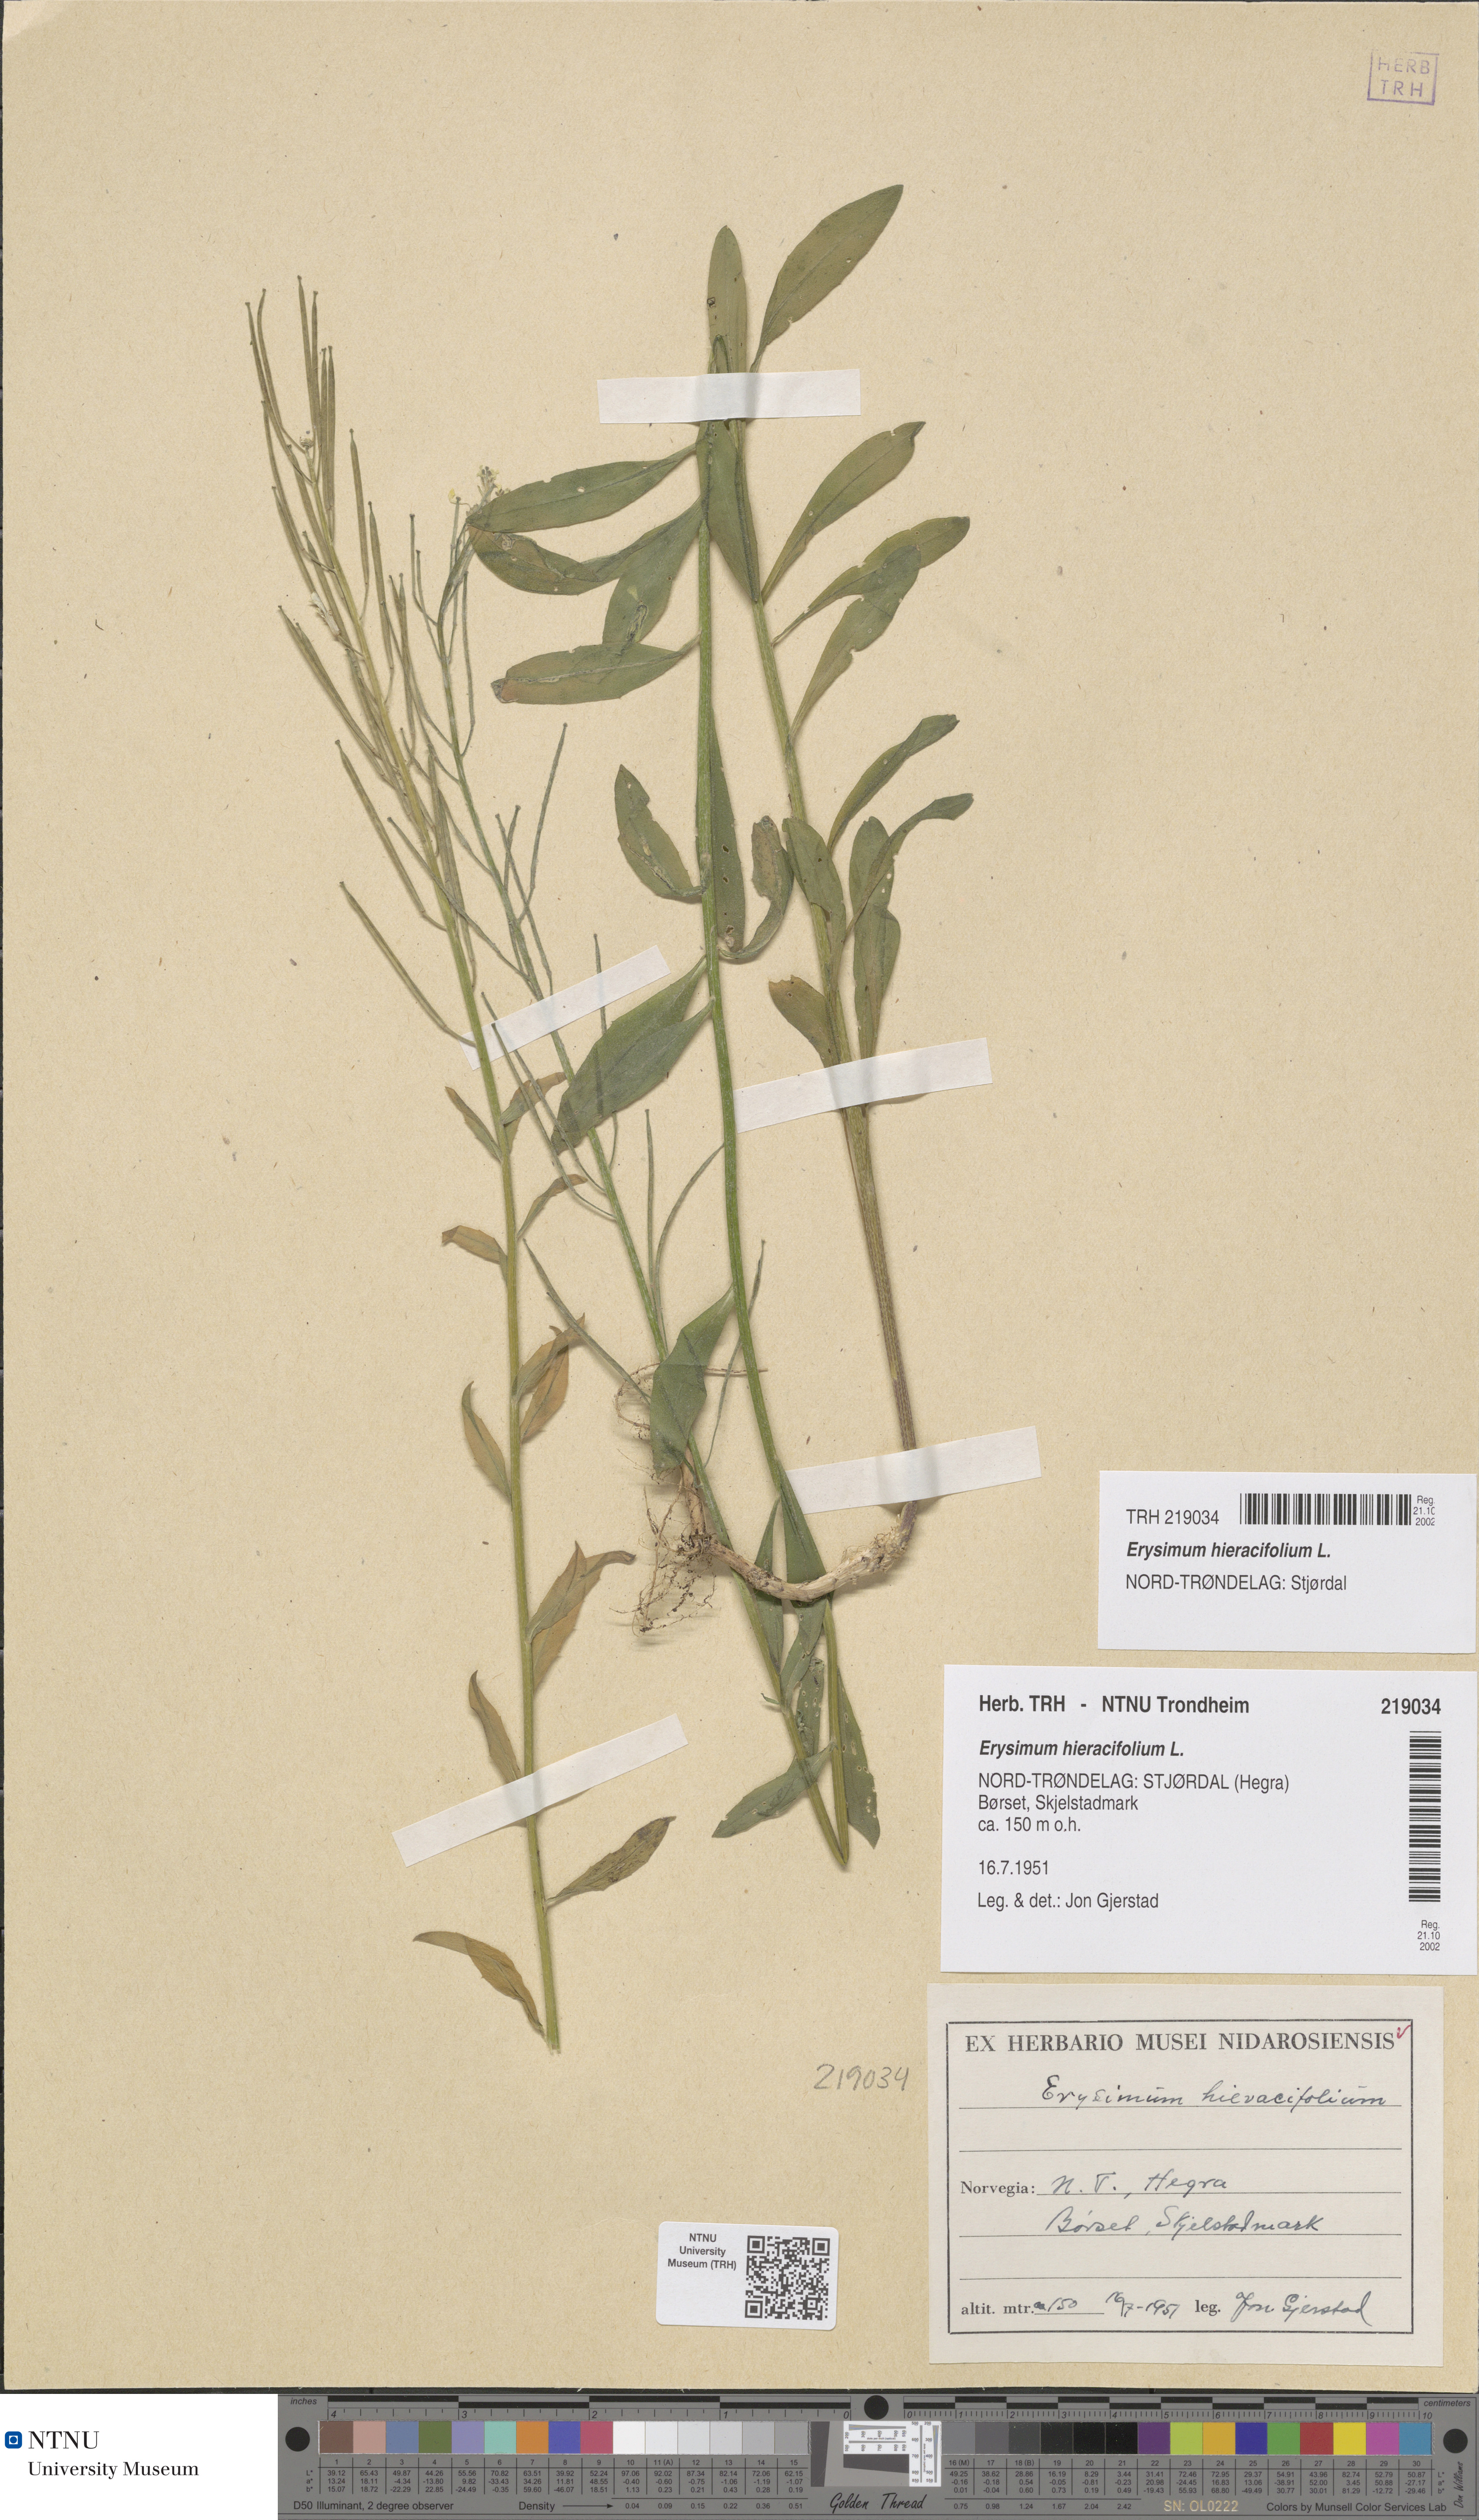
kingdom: Plantae
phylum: Tracheophyta
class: Magnoliopsida
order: Brassicales
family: Brassicaceae
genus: Erysimum
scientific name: Erysimum virgatum
